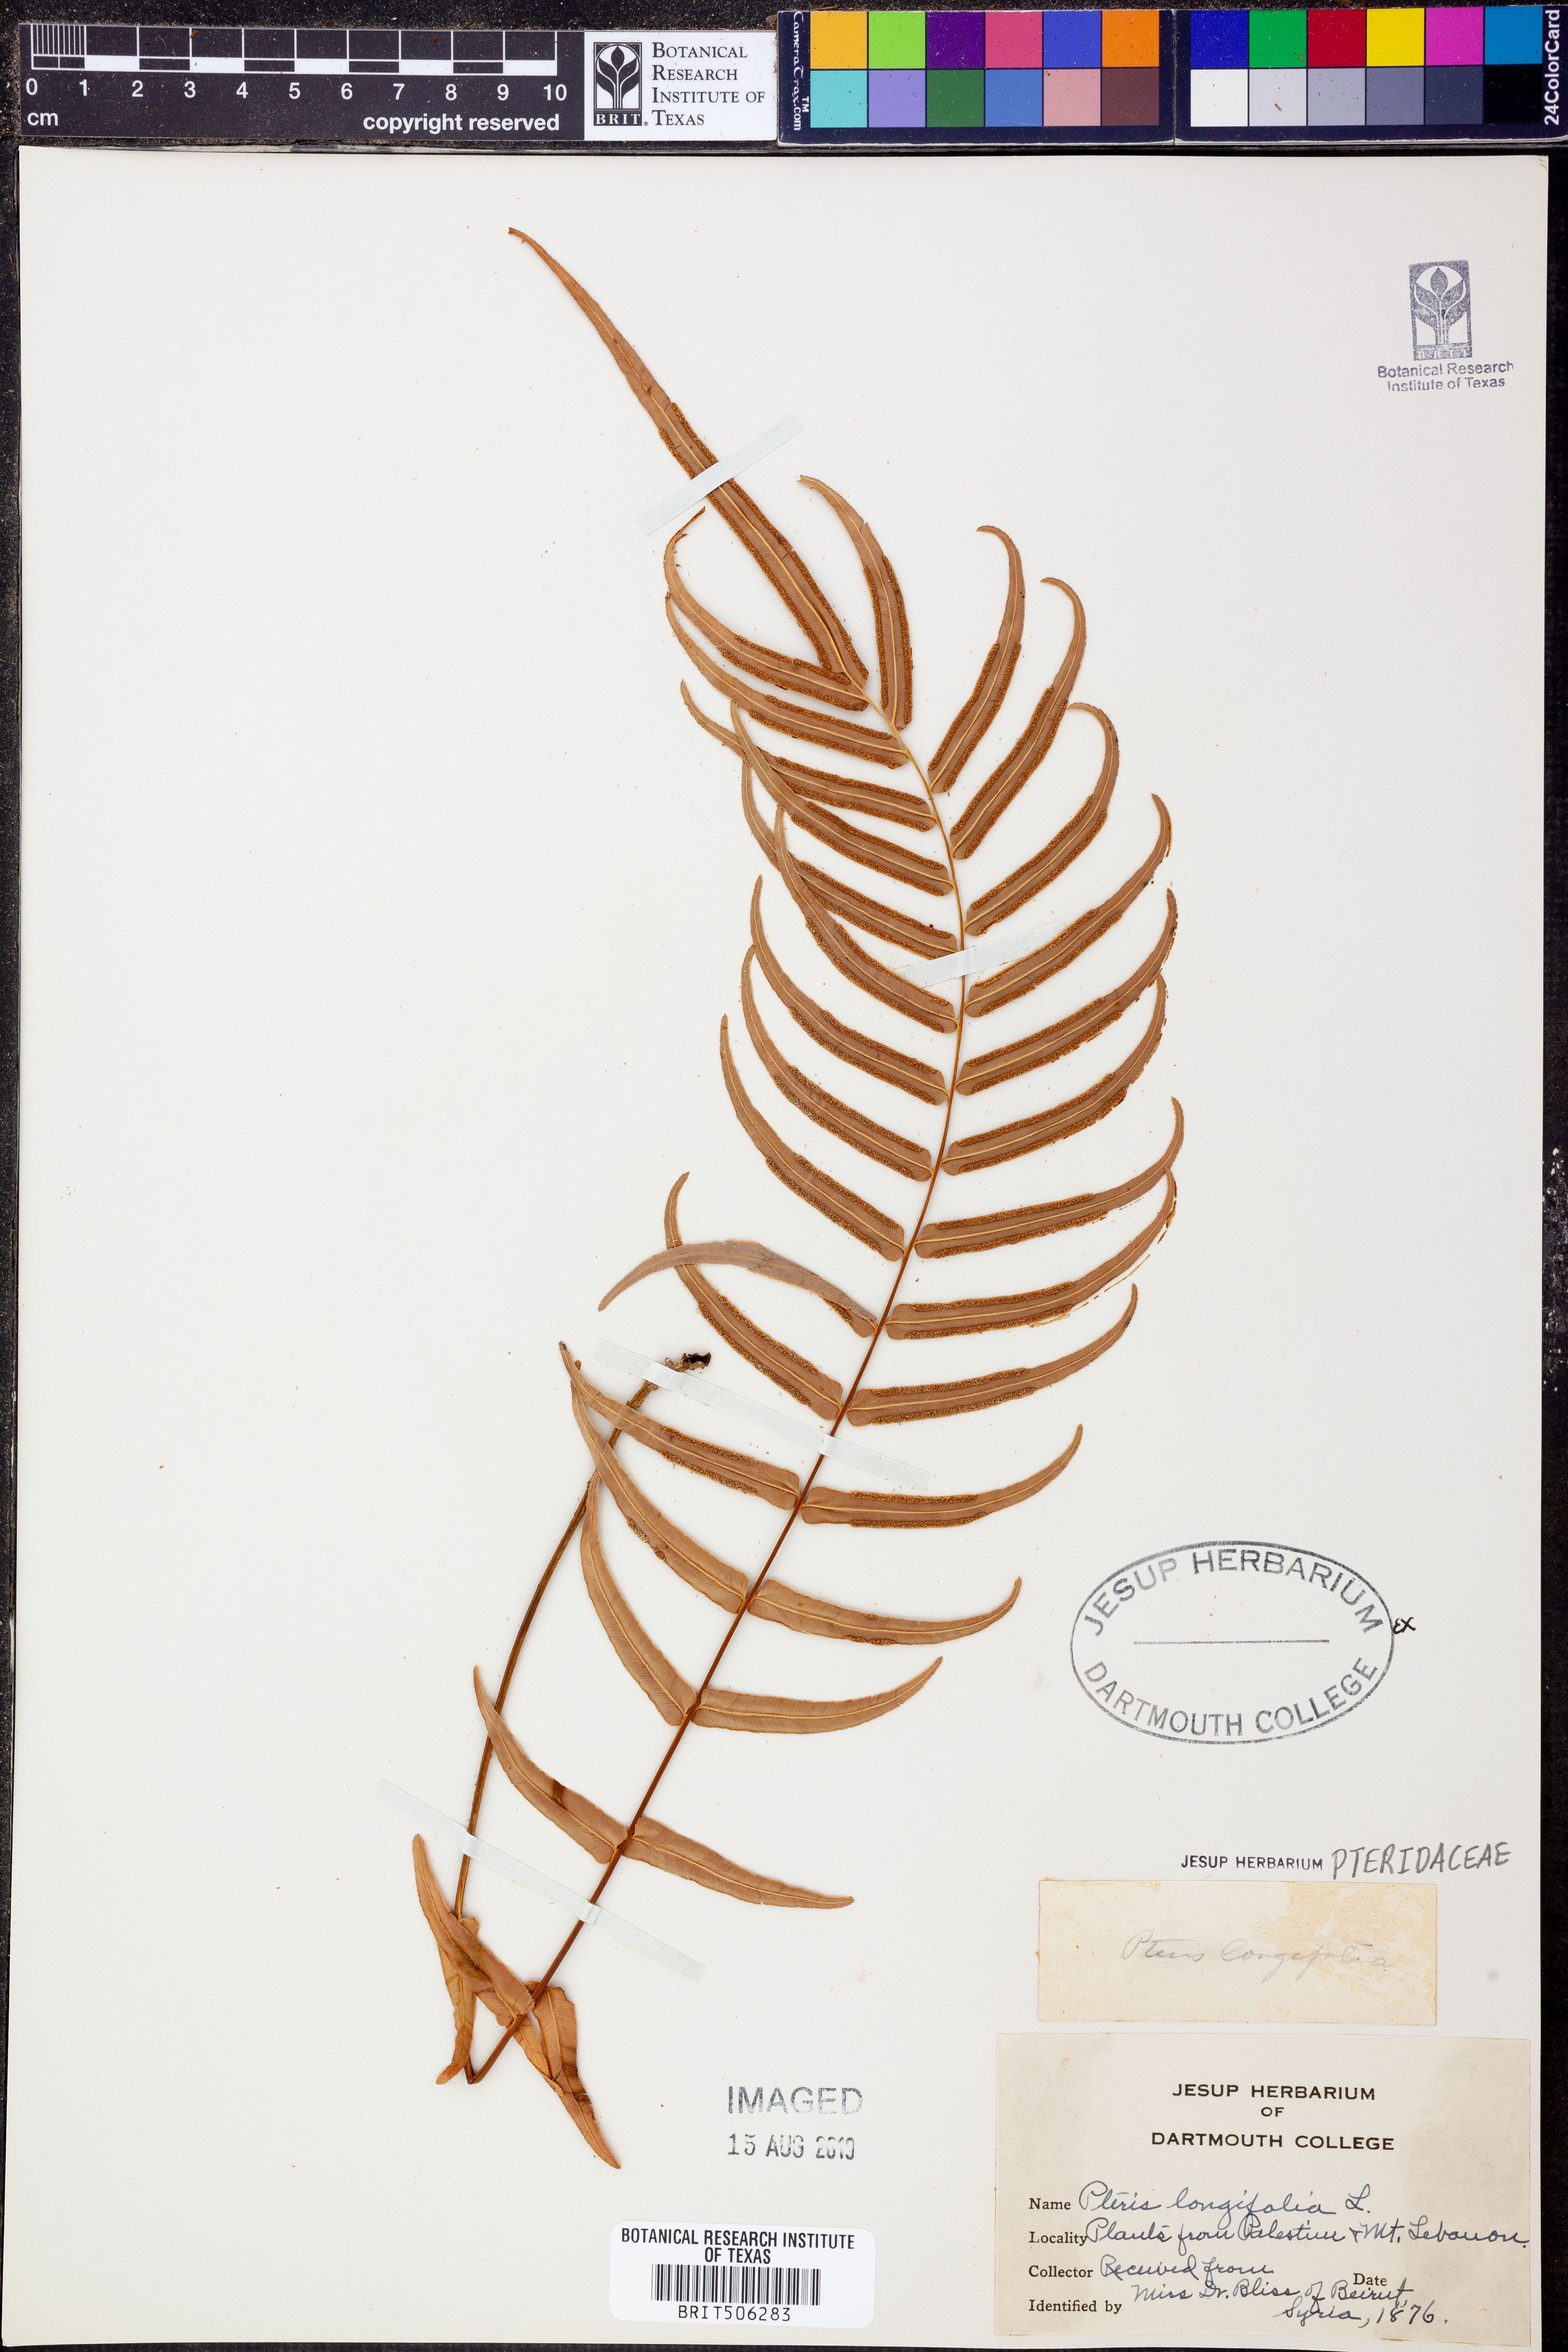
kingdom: Plantae
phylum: Tracheophyta
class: Polypodiopsida
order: Polypodiales
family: Pteridaceae
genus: Pteris
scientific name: Pteris longifolia
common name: Longleaf brake
